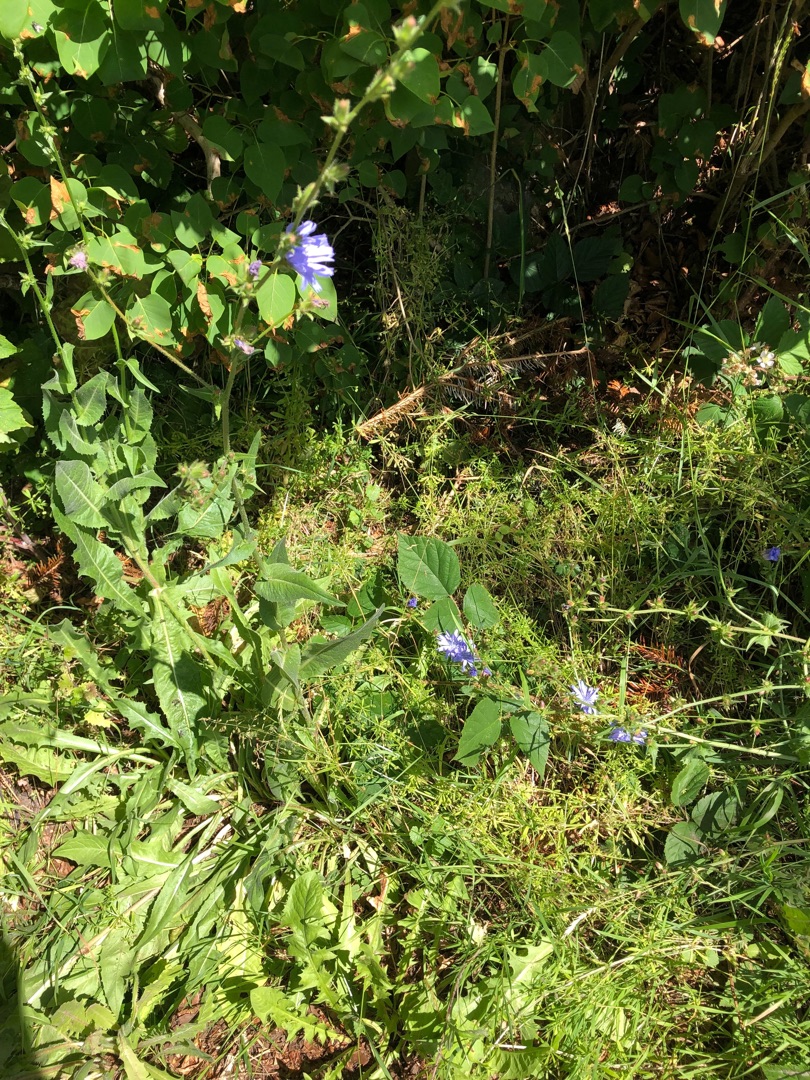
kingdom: Plantae
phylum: Tracheophyta
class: Magnoliopsida
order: Asterales
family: Asteraceae
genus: Cichorium
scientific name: Cichorium intybus
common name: Cikorie
